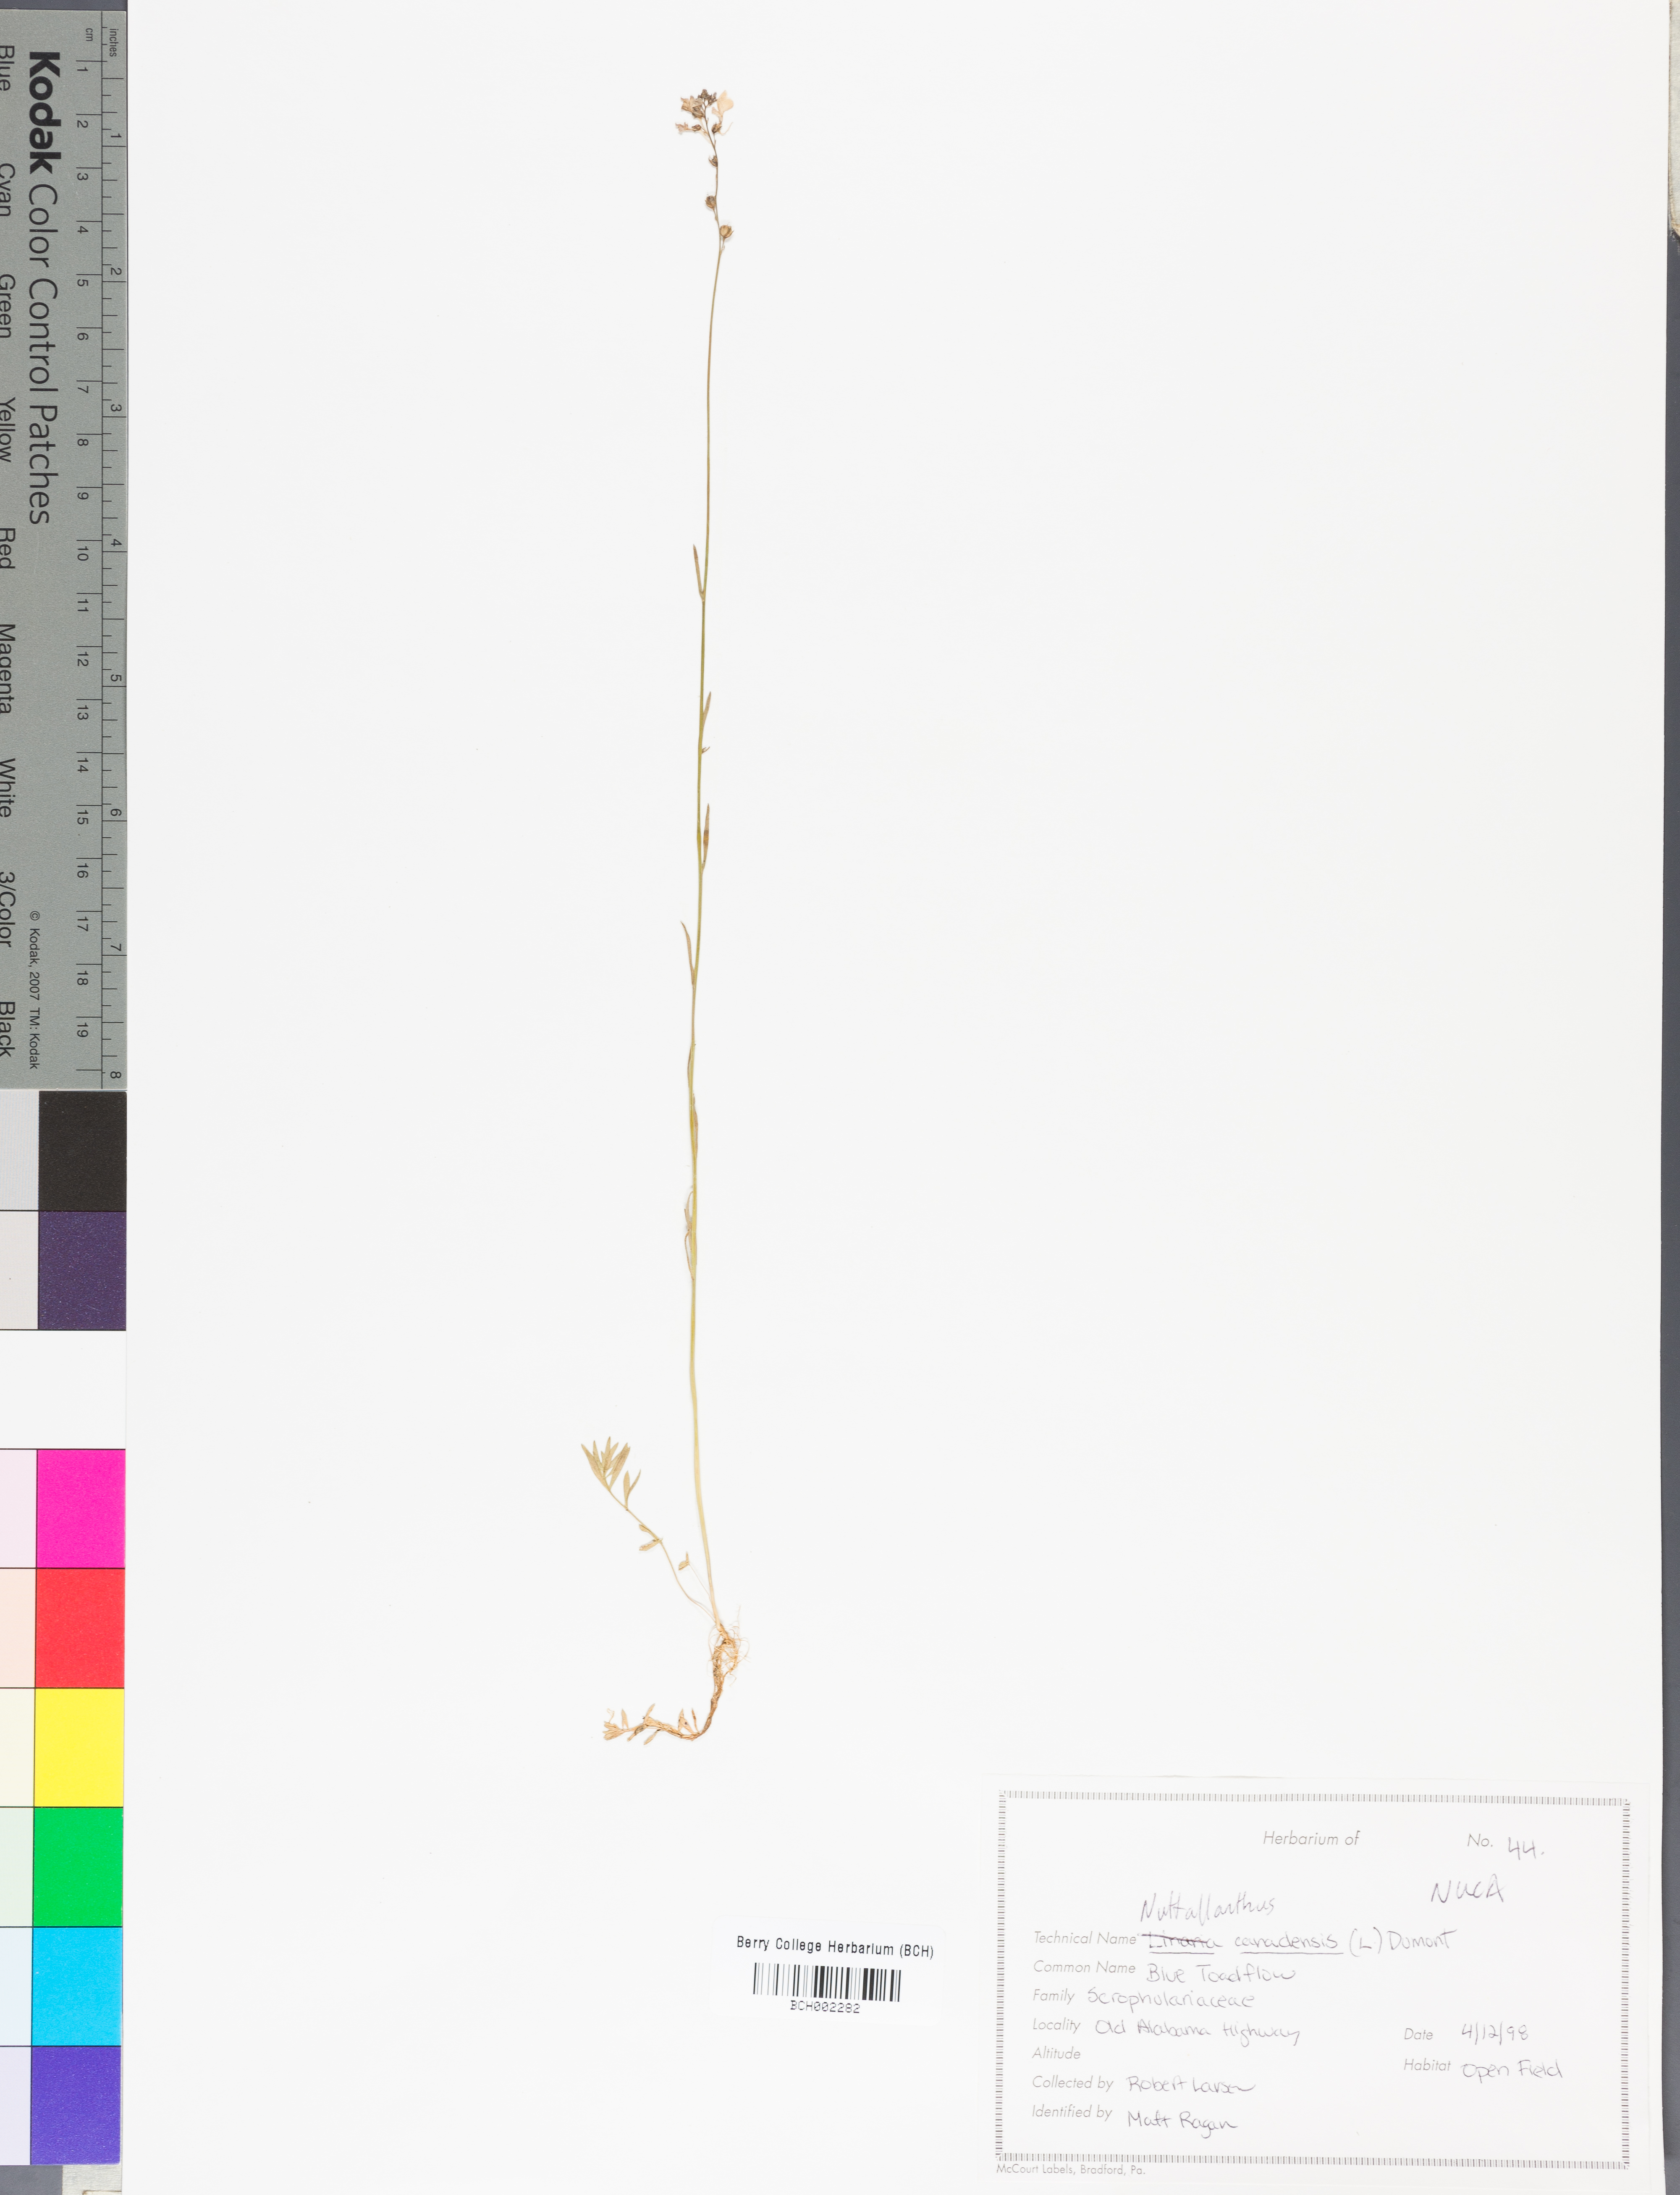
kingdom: Plantae
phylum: Tracheophyta
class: Magnoliopsida
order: Lamiales
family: Plantaginaceae
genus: Nuttallanthus
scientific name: Nuttallanthus canadensis
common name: Blue toadflax
